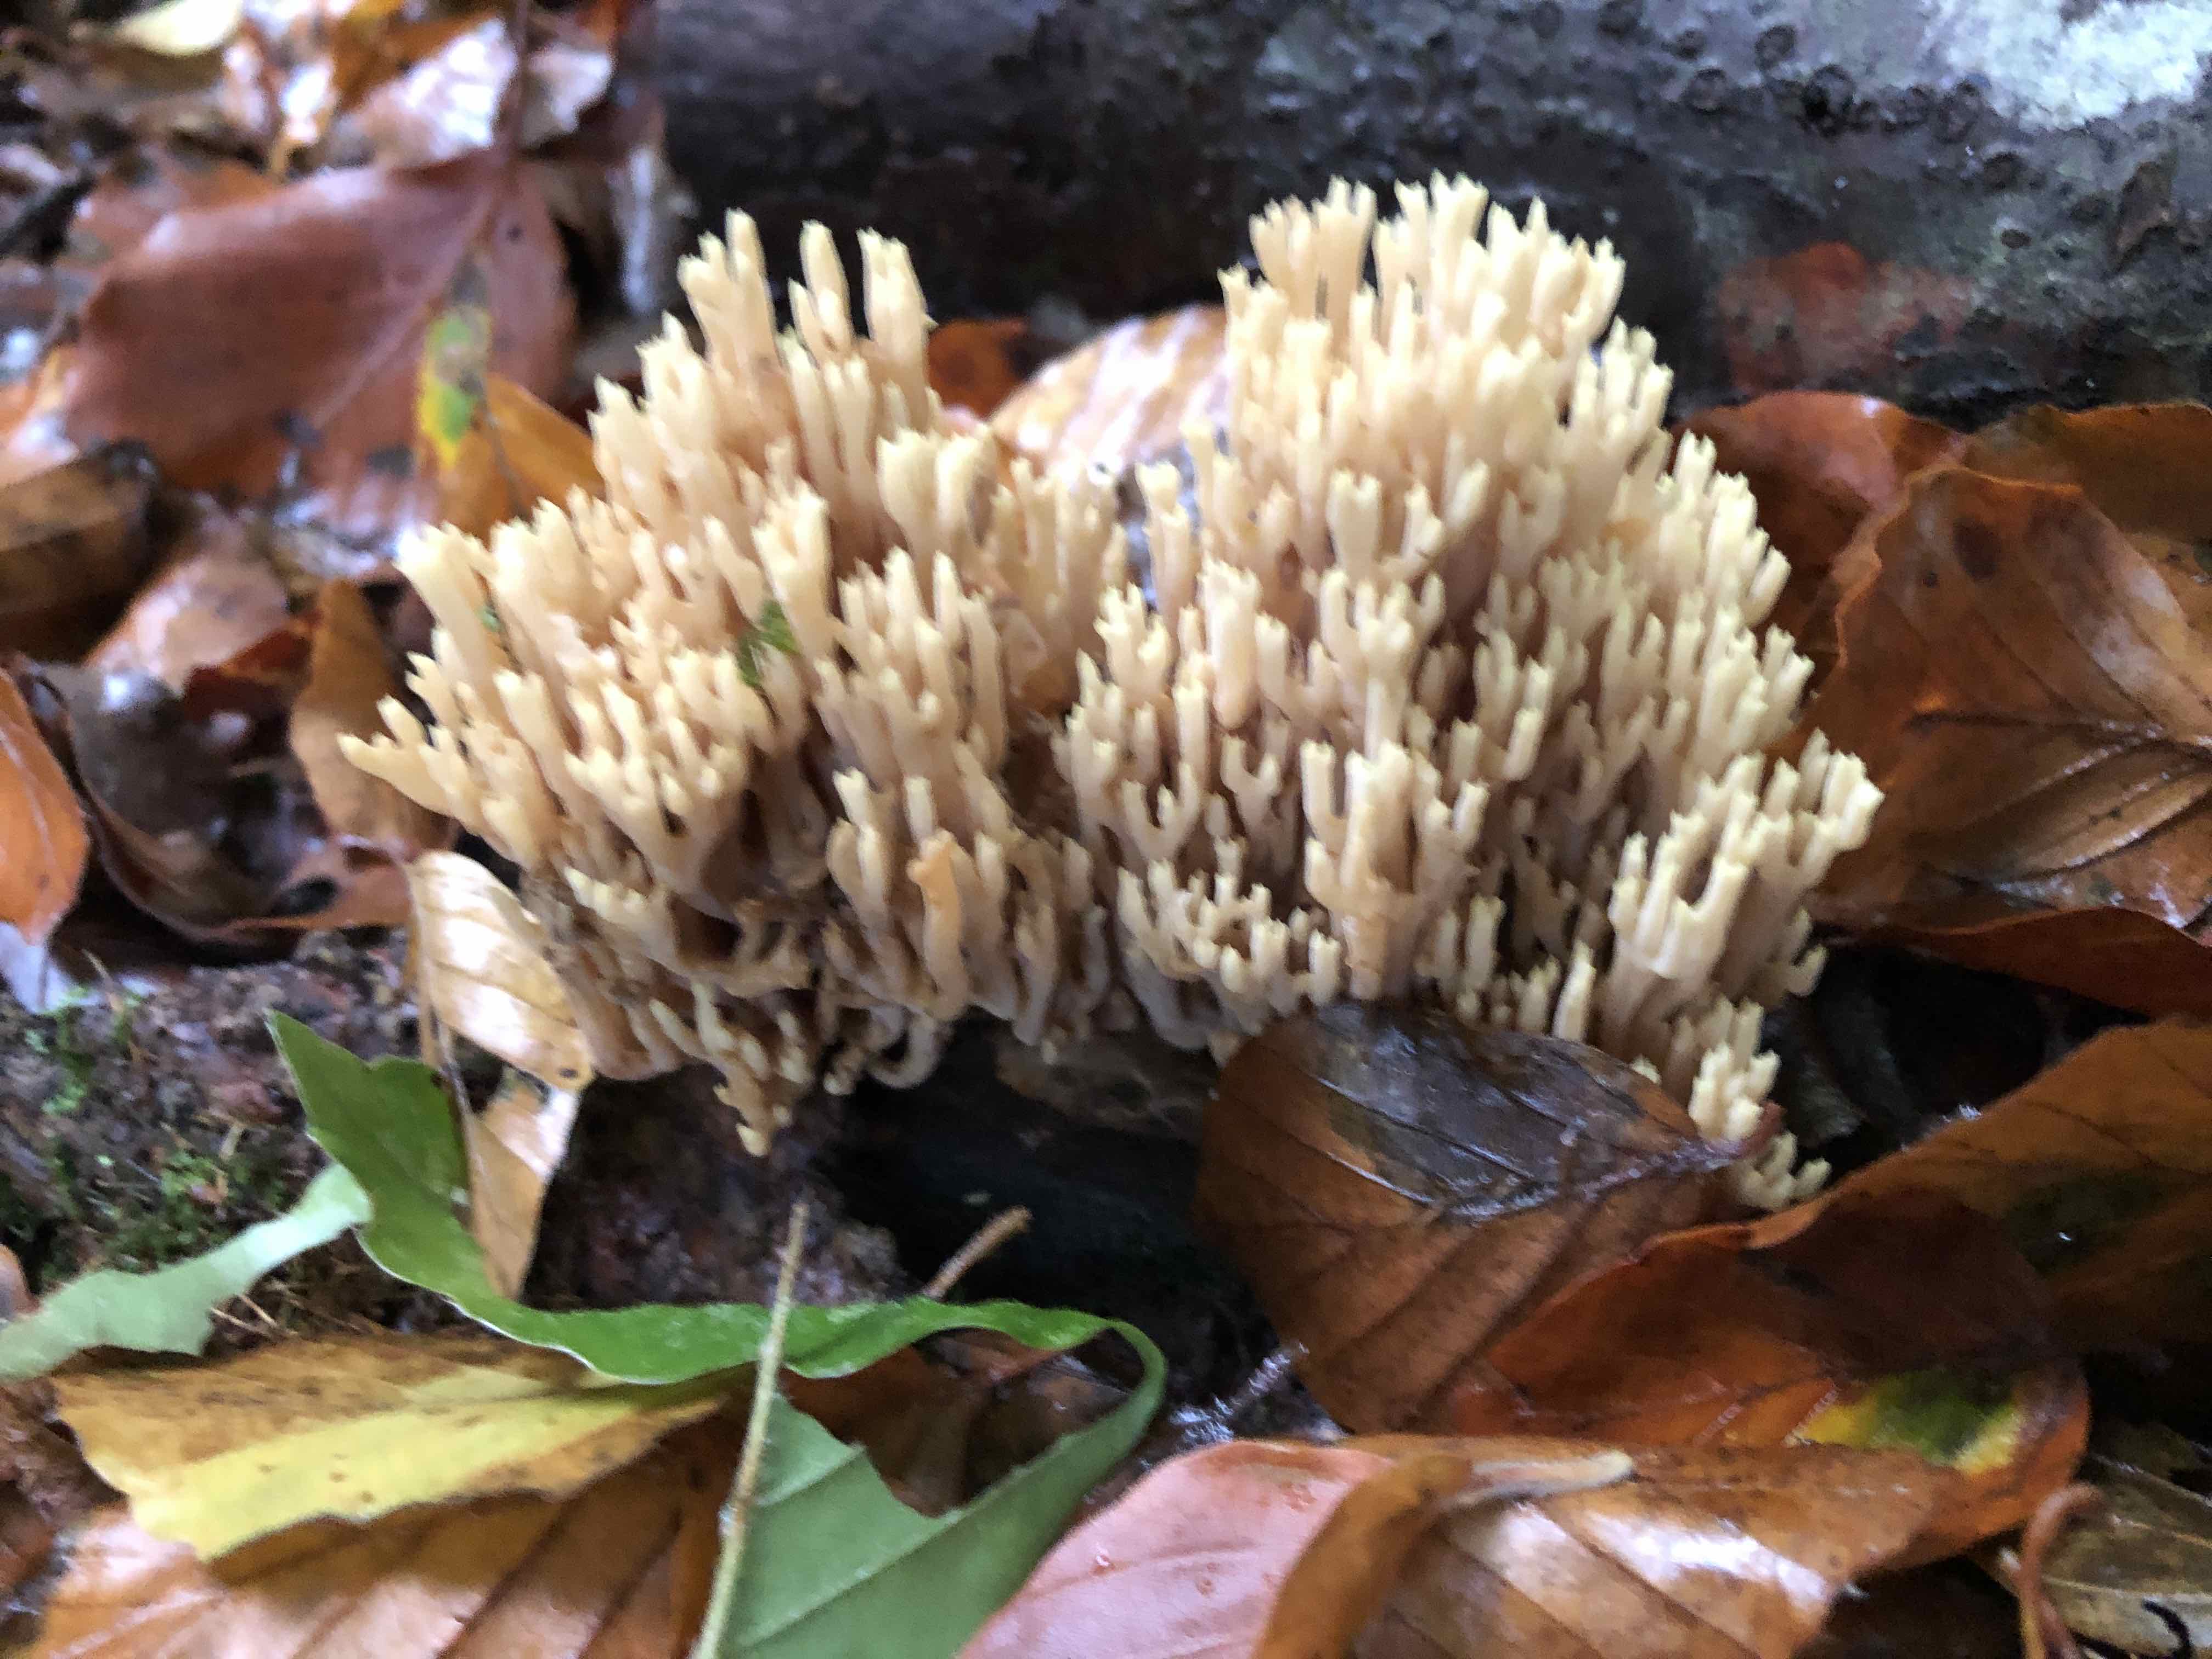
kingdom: Fungi
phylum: Basidiomycota
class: Agaricomycetes
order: Gomphales
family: Gomphaceae
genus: Ramaria
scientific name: Ramaria stricta
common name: rank koralsvamp
